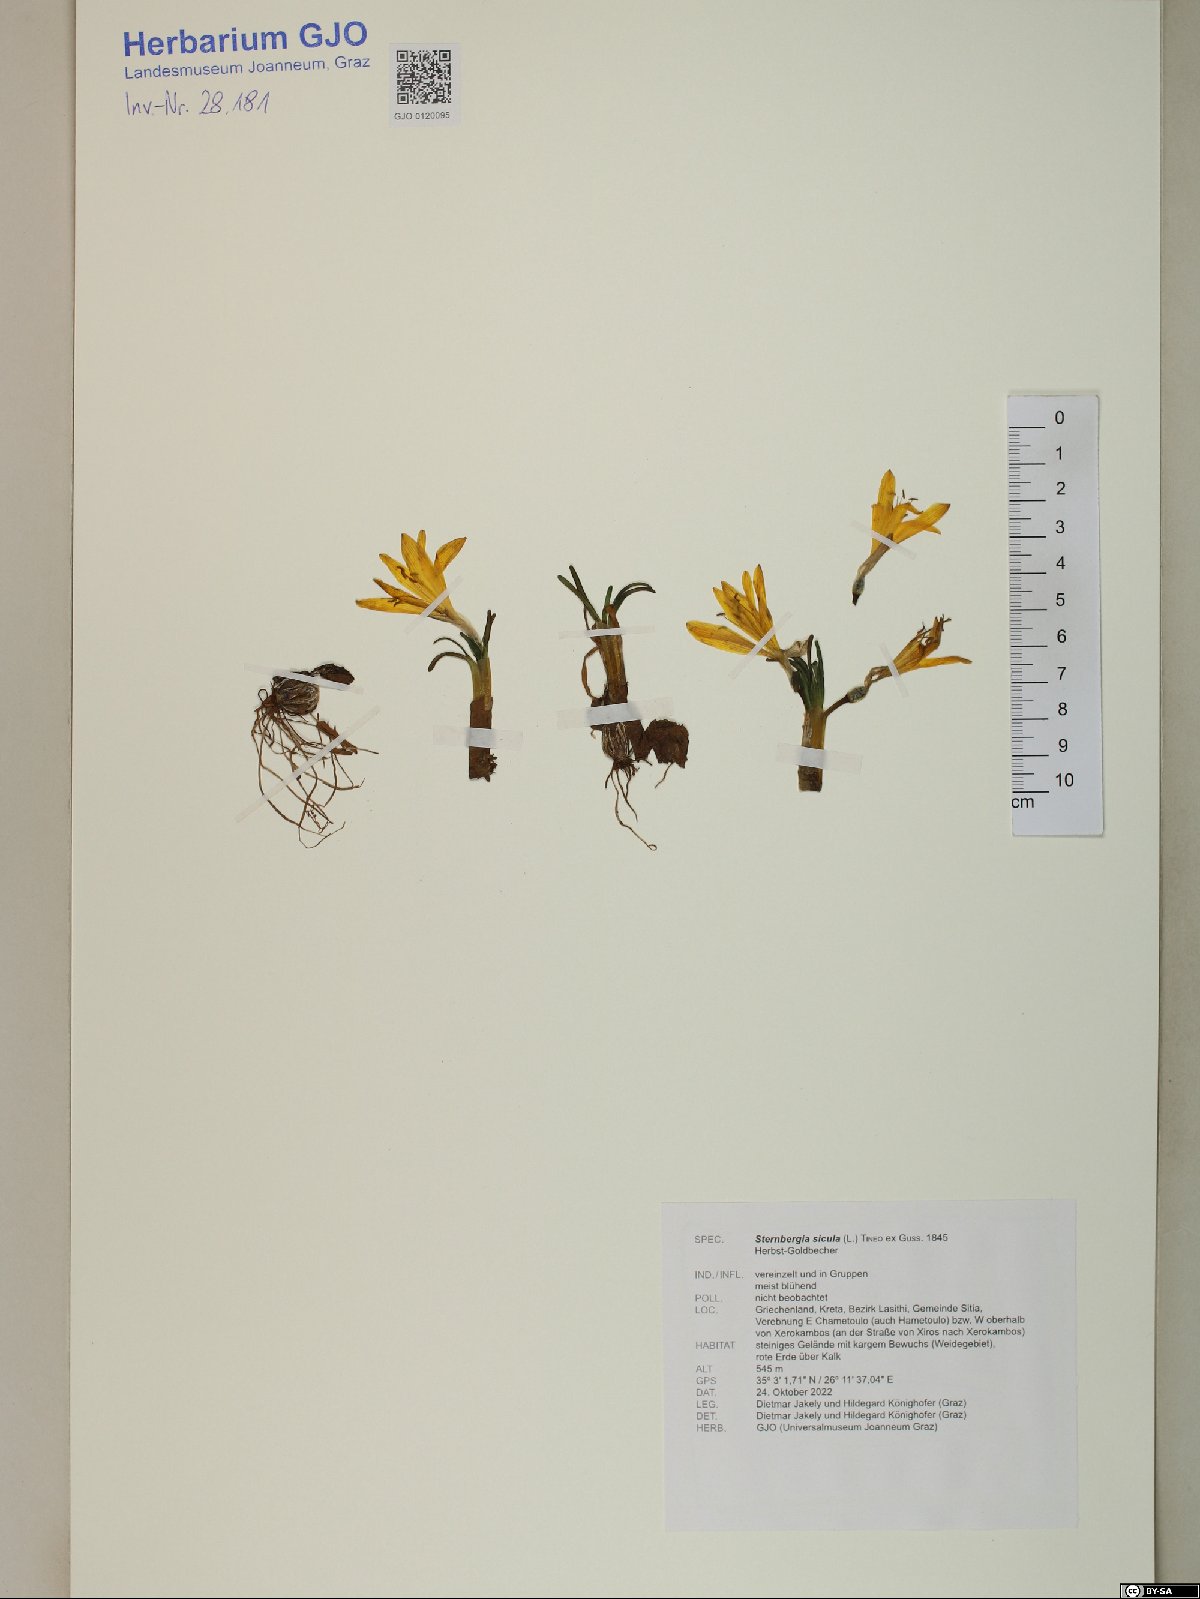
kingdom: Plantae
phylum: Tracheophyta
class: Liliopsida
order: Asparagales
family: Amaryllidaceae
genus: Sternbergia
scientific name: Sternbergia lutea
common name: Winter daffodil
